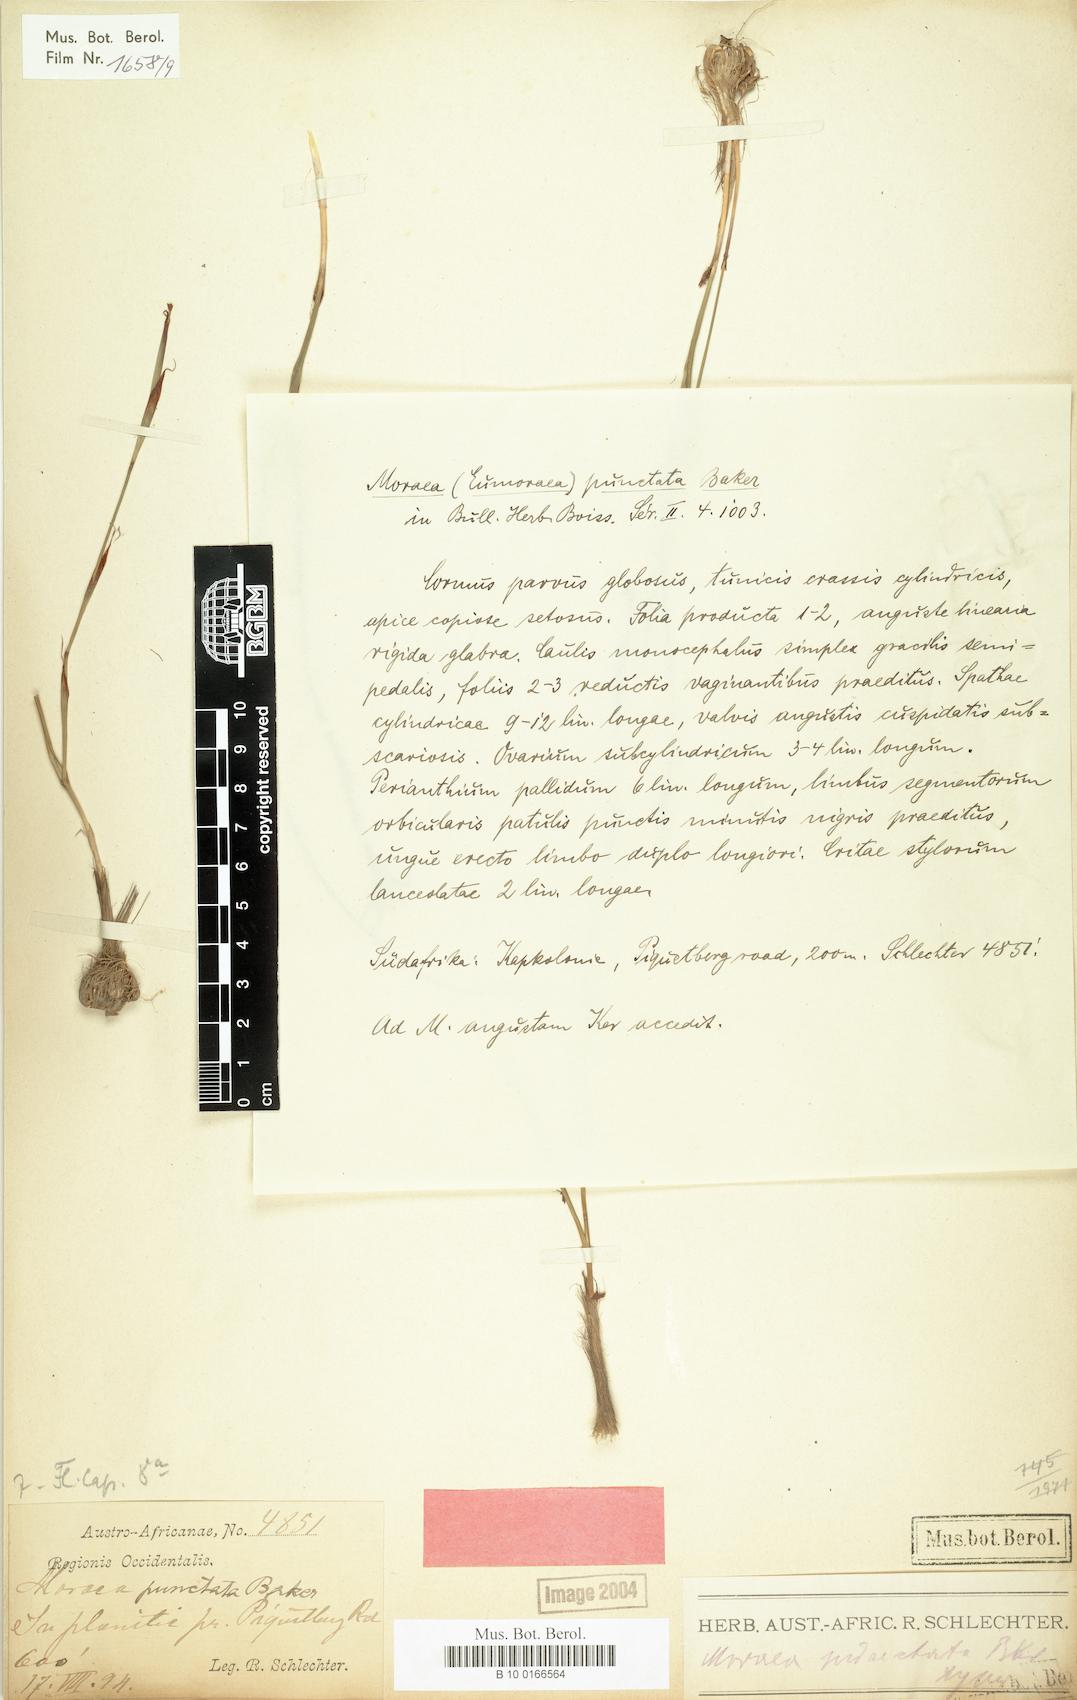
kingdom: Plantae
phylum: Tracheophyta
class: Liliopsida
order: Asparagales
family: Iridaceae
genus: Moraea
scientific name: Moraea punctata
